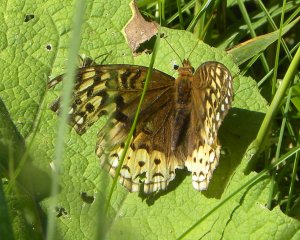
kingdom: Animalia
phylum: Arthropoda
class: Insecta
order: Lepidoptera
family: Nymphalidae
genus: Speyeria
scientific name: Speyeria cybele
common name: Great Spangled Fritillary
